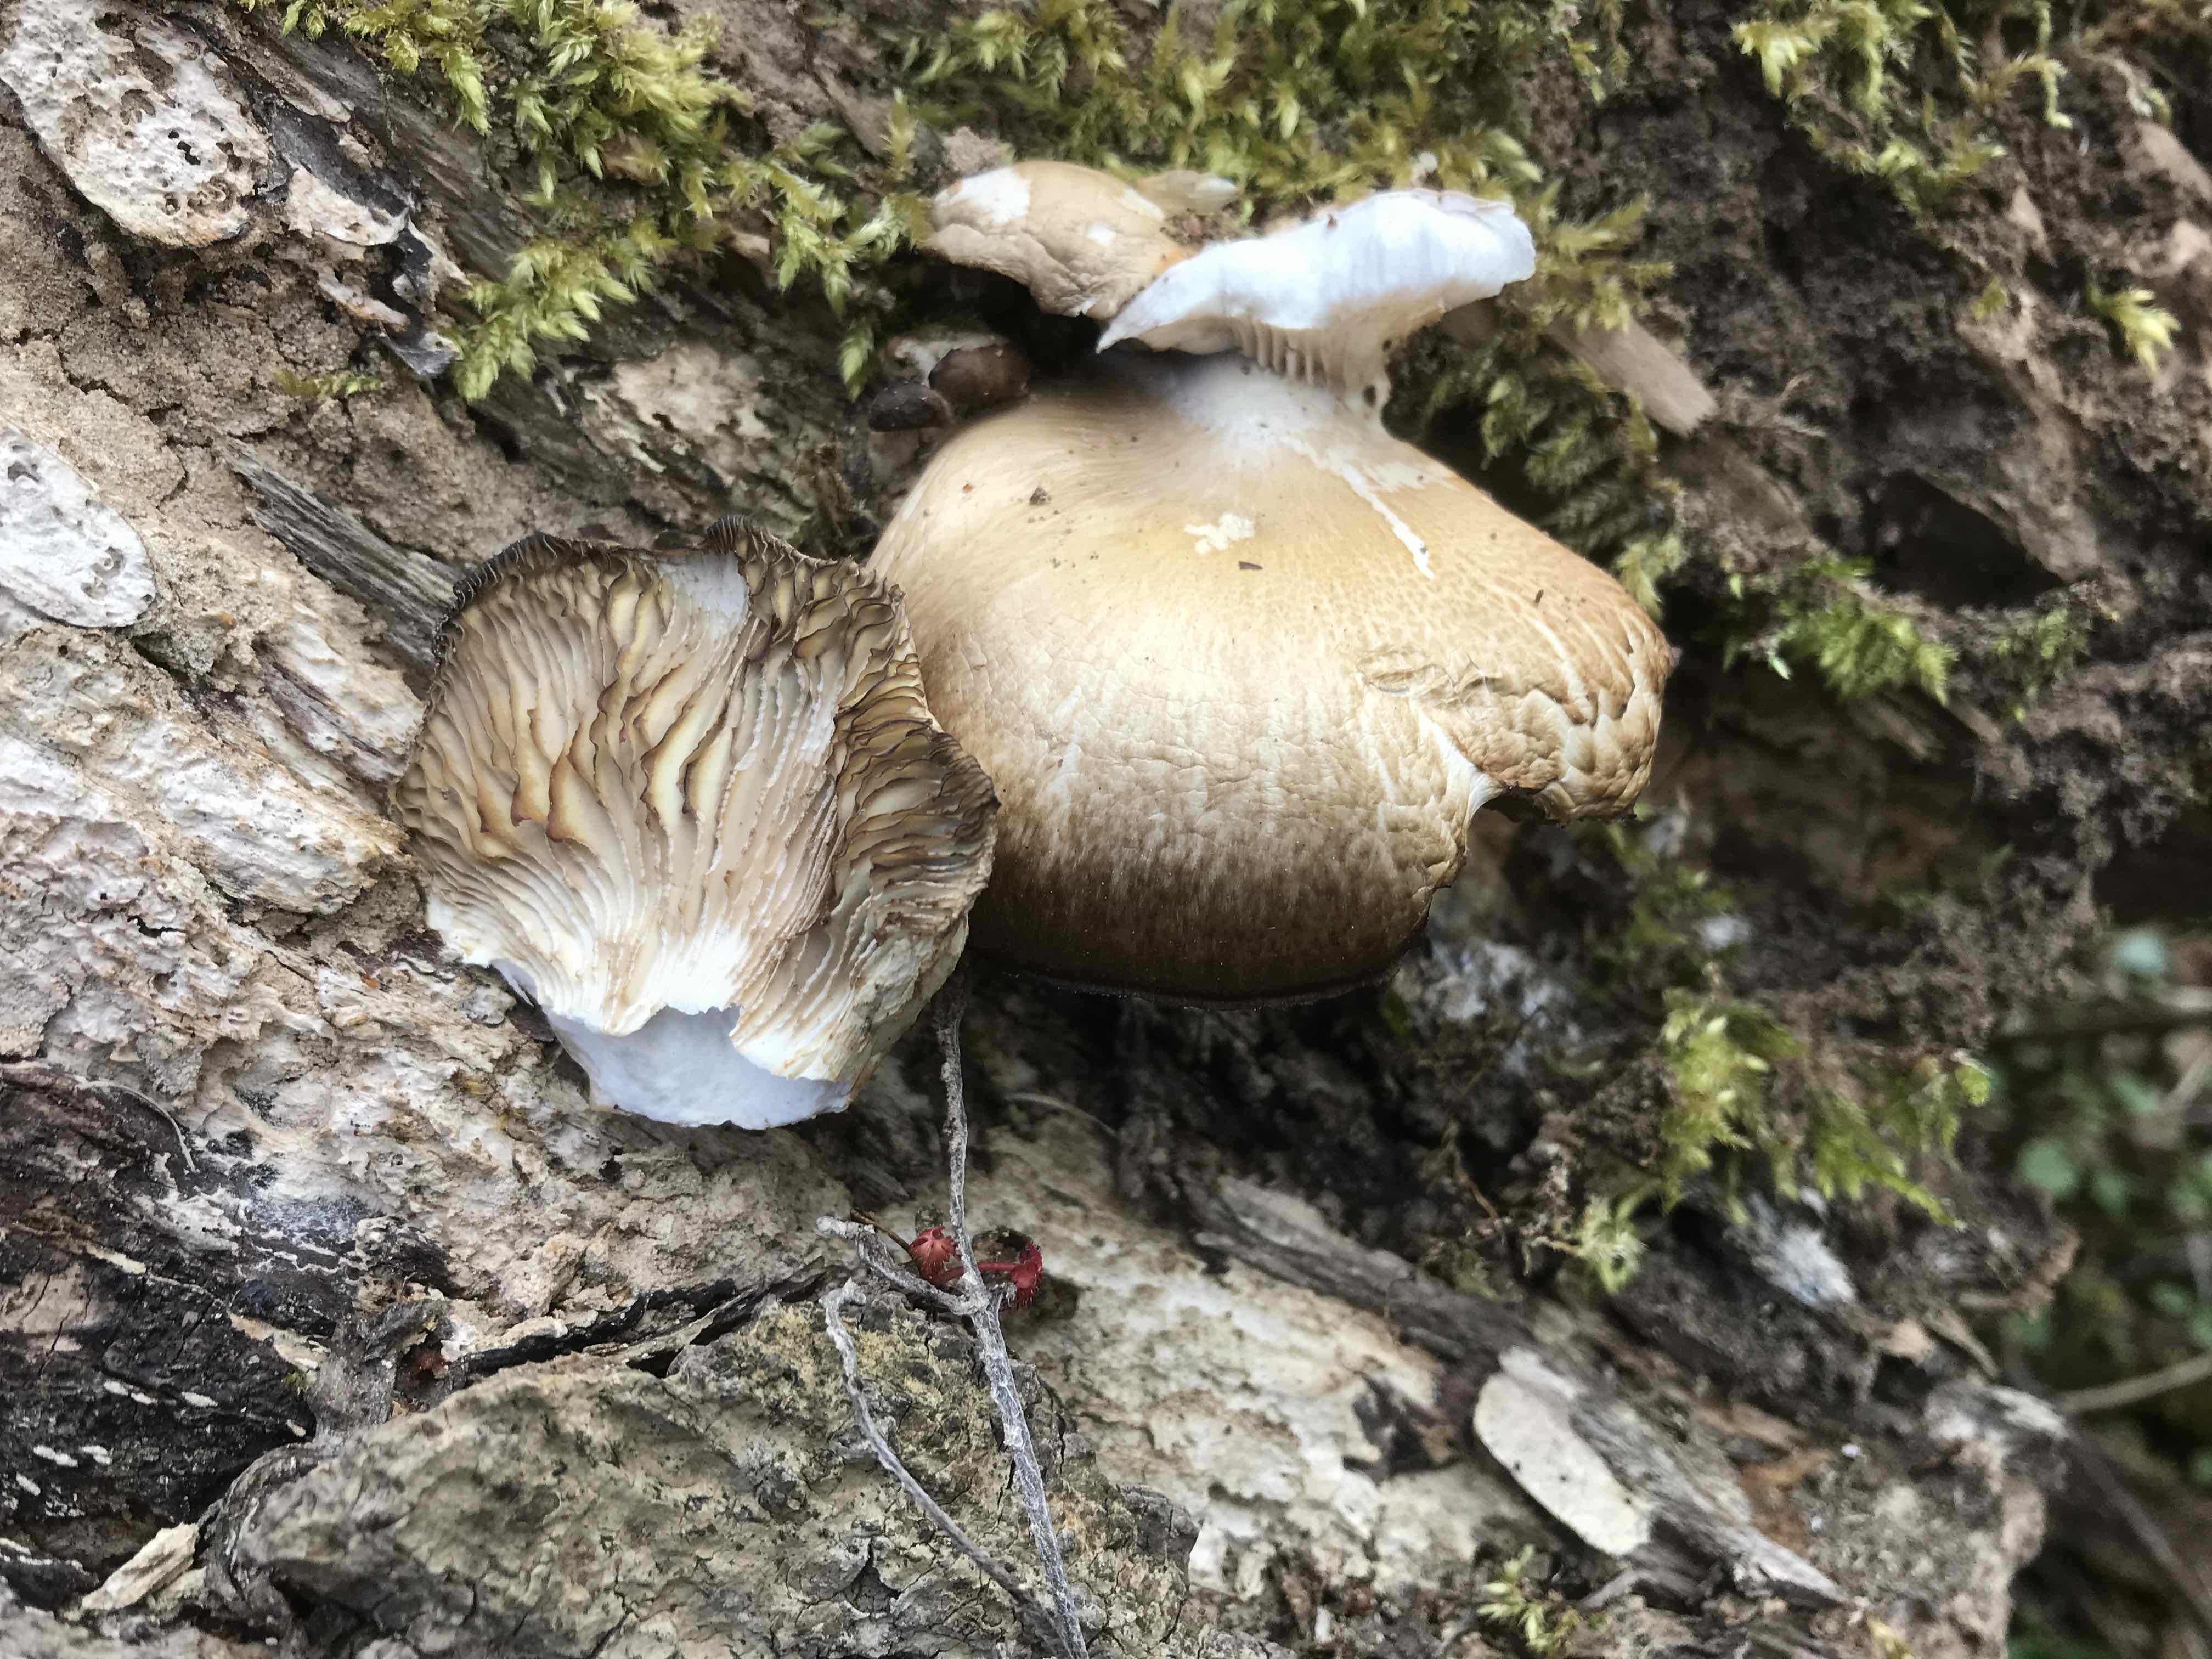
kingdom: Fungi
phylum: Basidiomycota
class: Agaricomycetes
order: Agaricales
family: Pleurotaceae
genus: Pleurotus
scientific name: Pleurotus ostreatus
